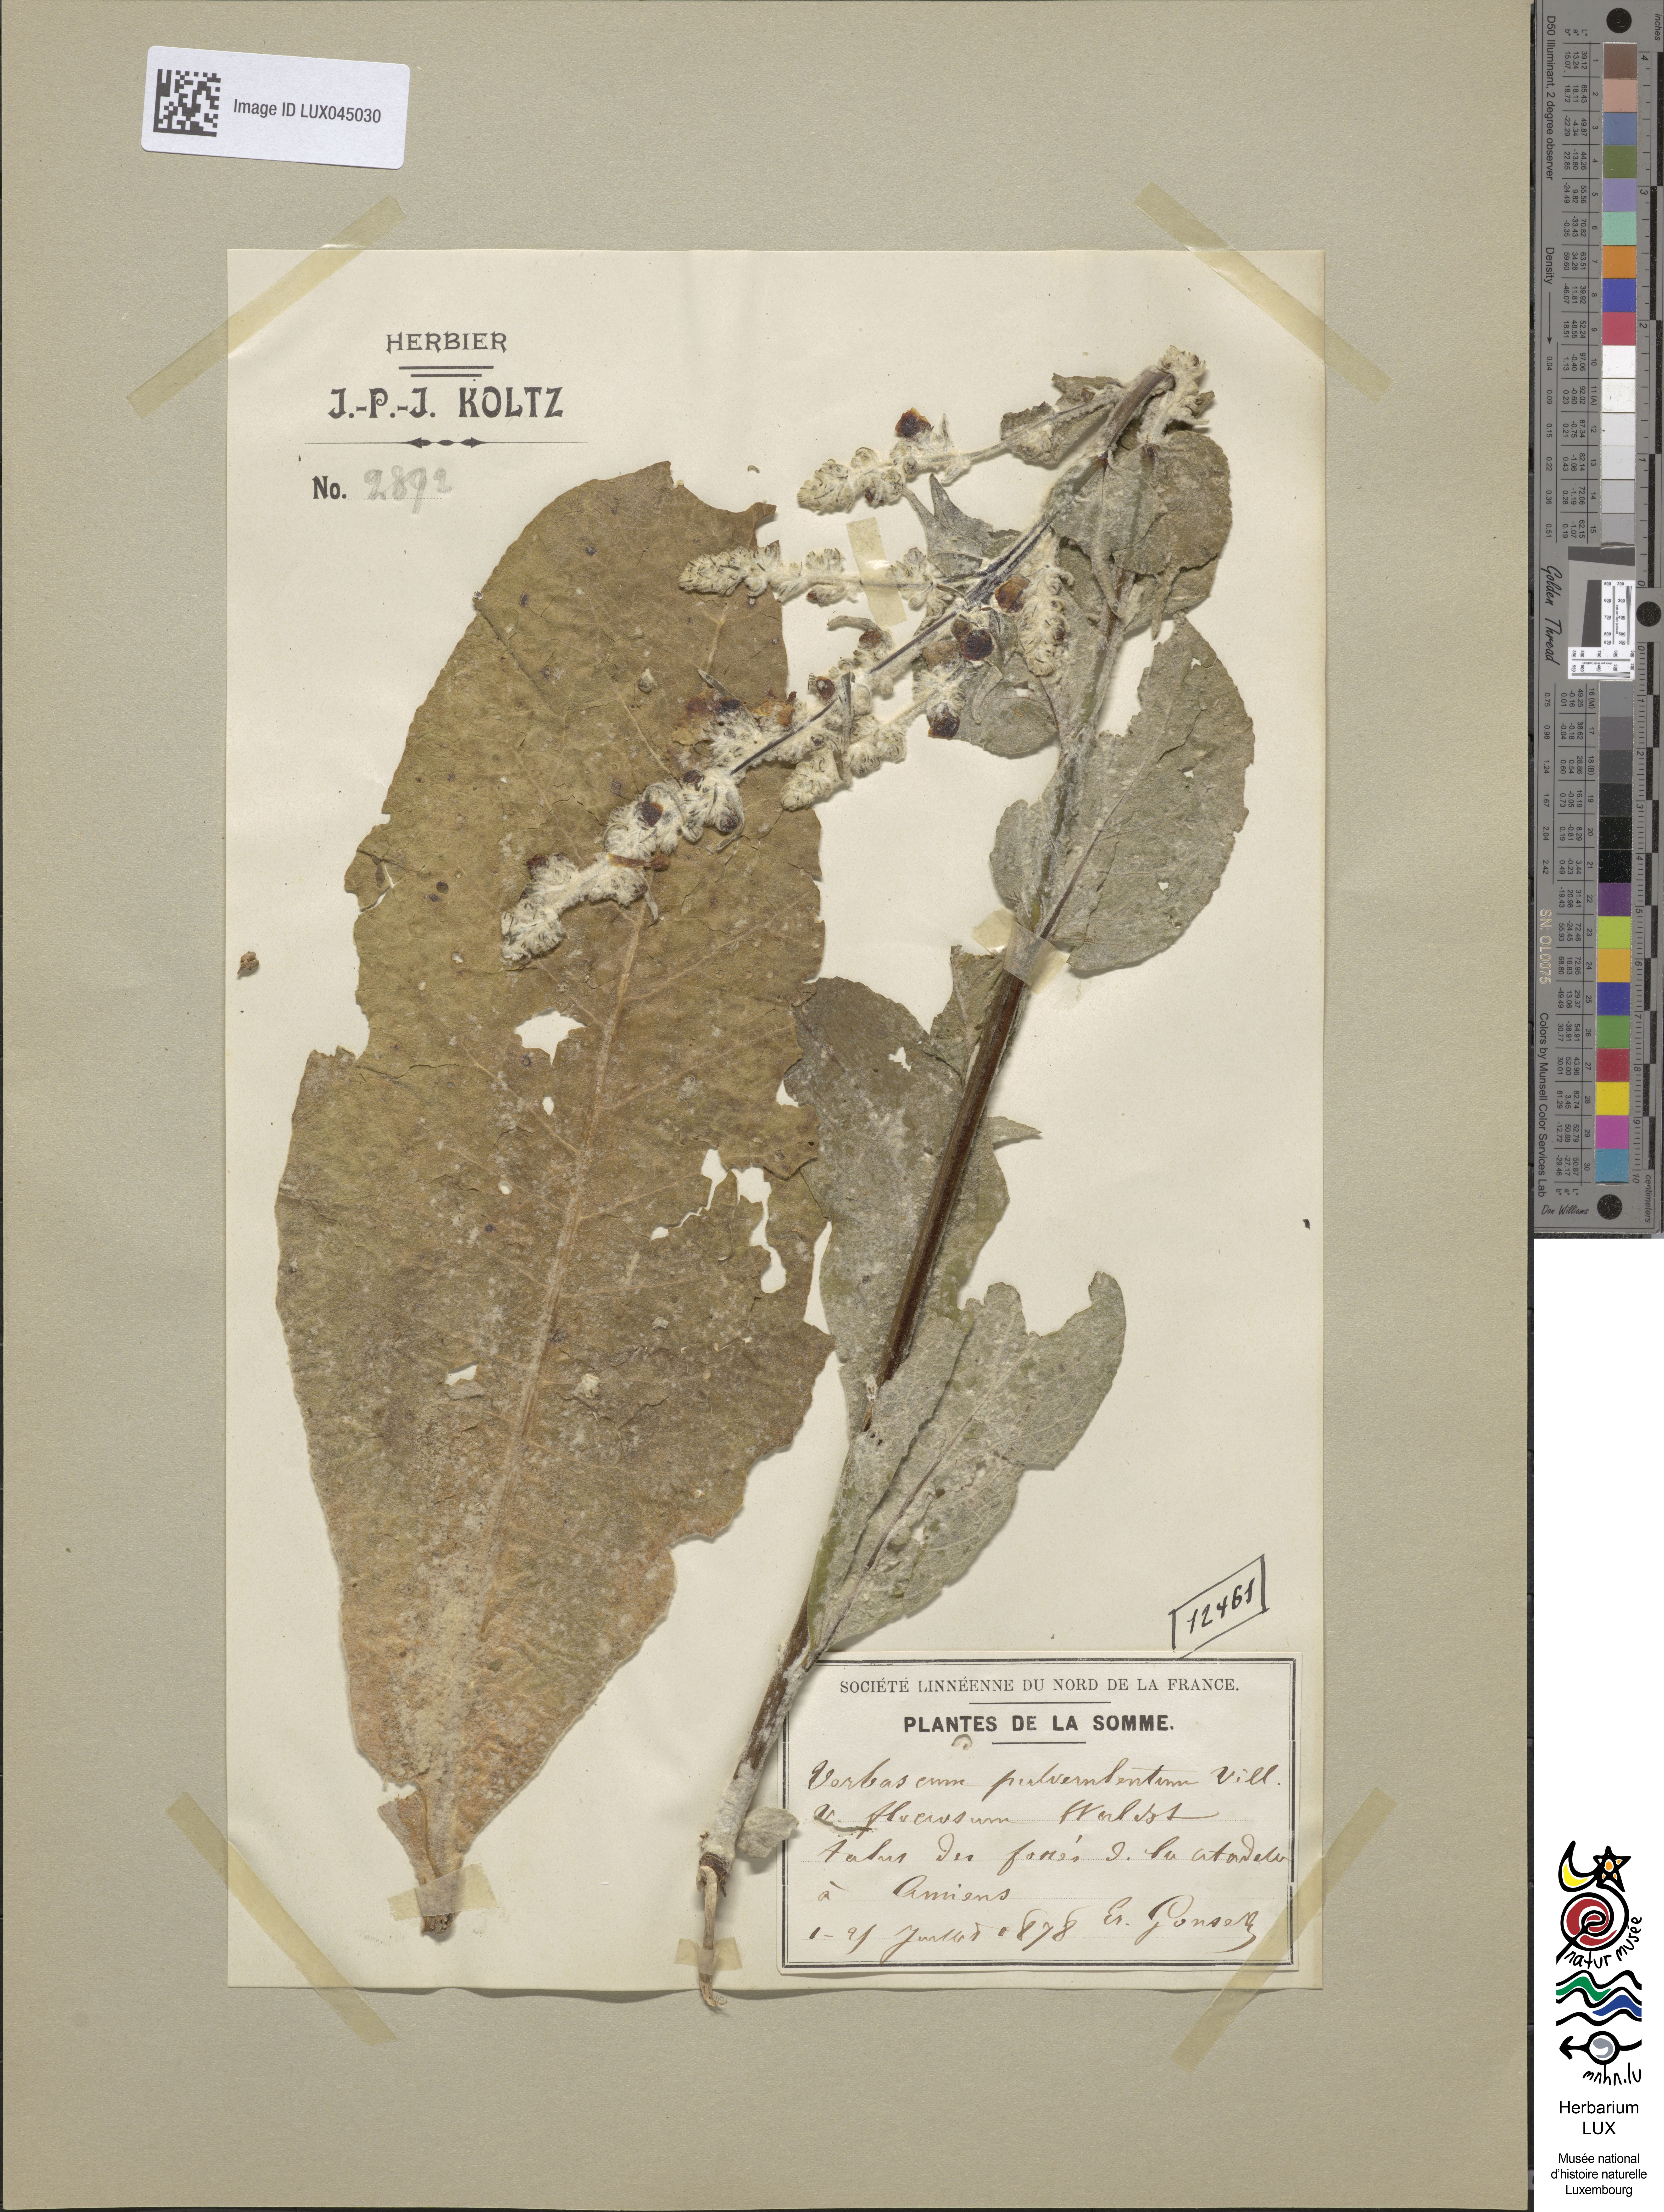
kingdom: Plantae
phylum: Tracheophyta
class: Magnoliopsida
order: Lamiales
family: Scrophulariaceae
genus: Verbascum
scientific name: Verbascum pulverulentum
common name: Broad-leaf mullein
